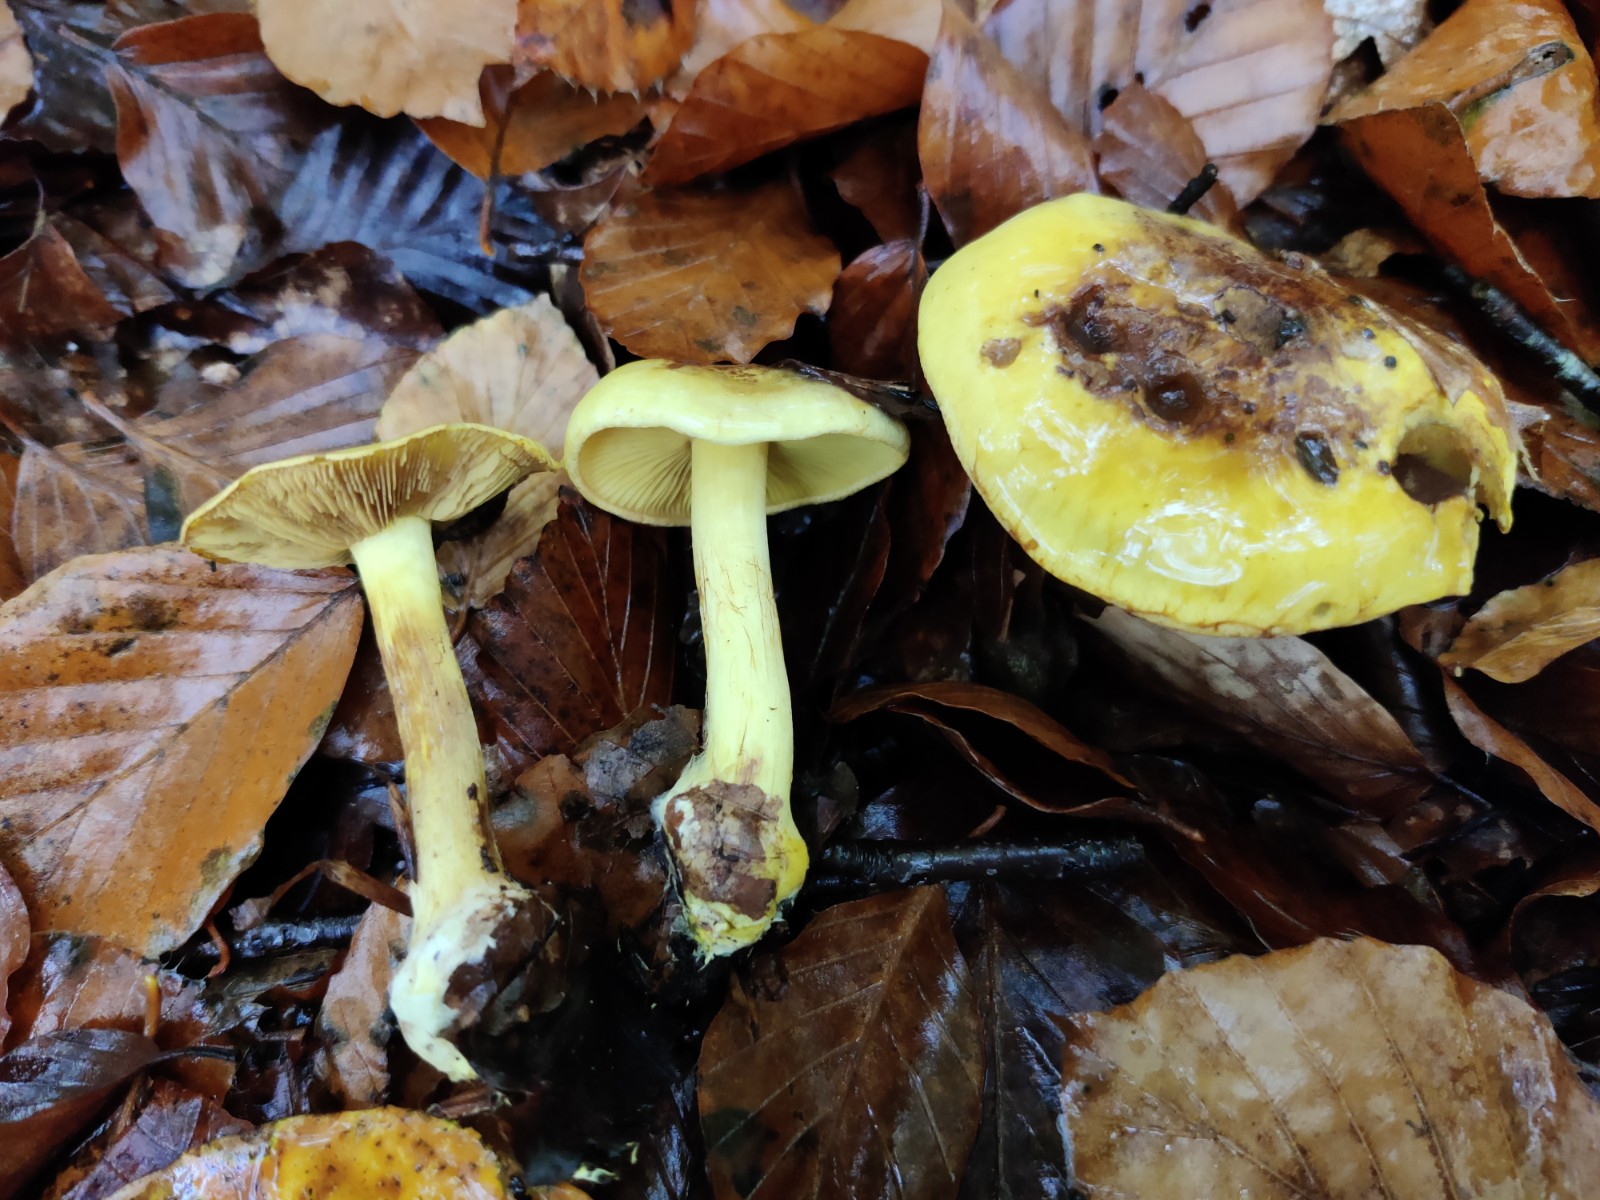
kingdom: Fungi
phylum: Basidiomycota
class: Agaricomycetes
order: Agaricales
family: Cortinariaceae
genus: Calonarius
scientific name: Calonarius splendens
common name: sirene-slørhat
